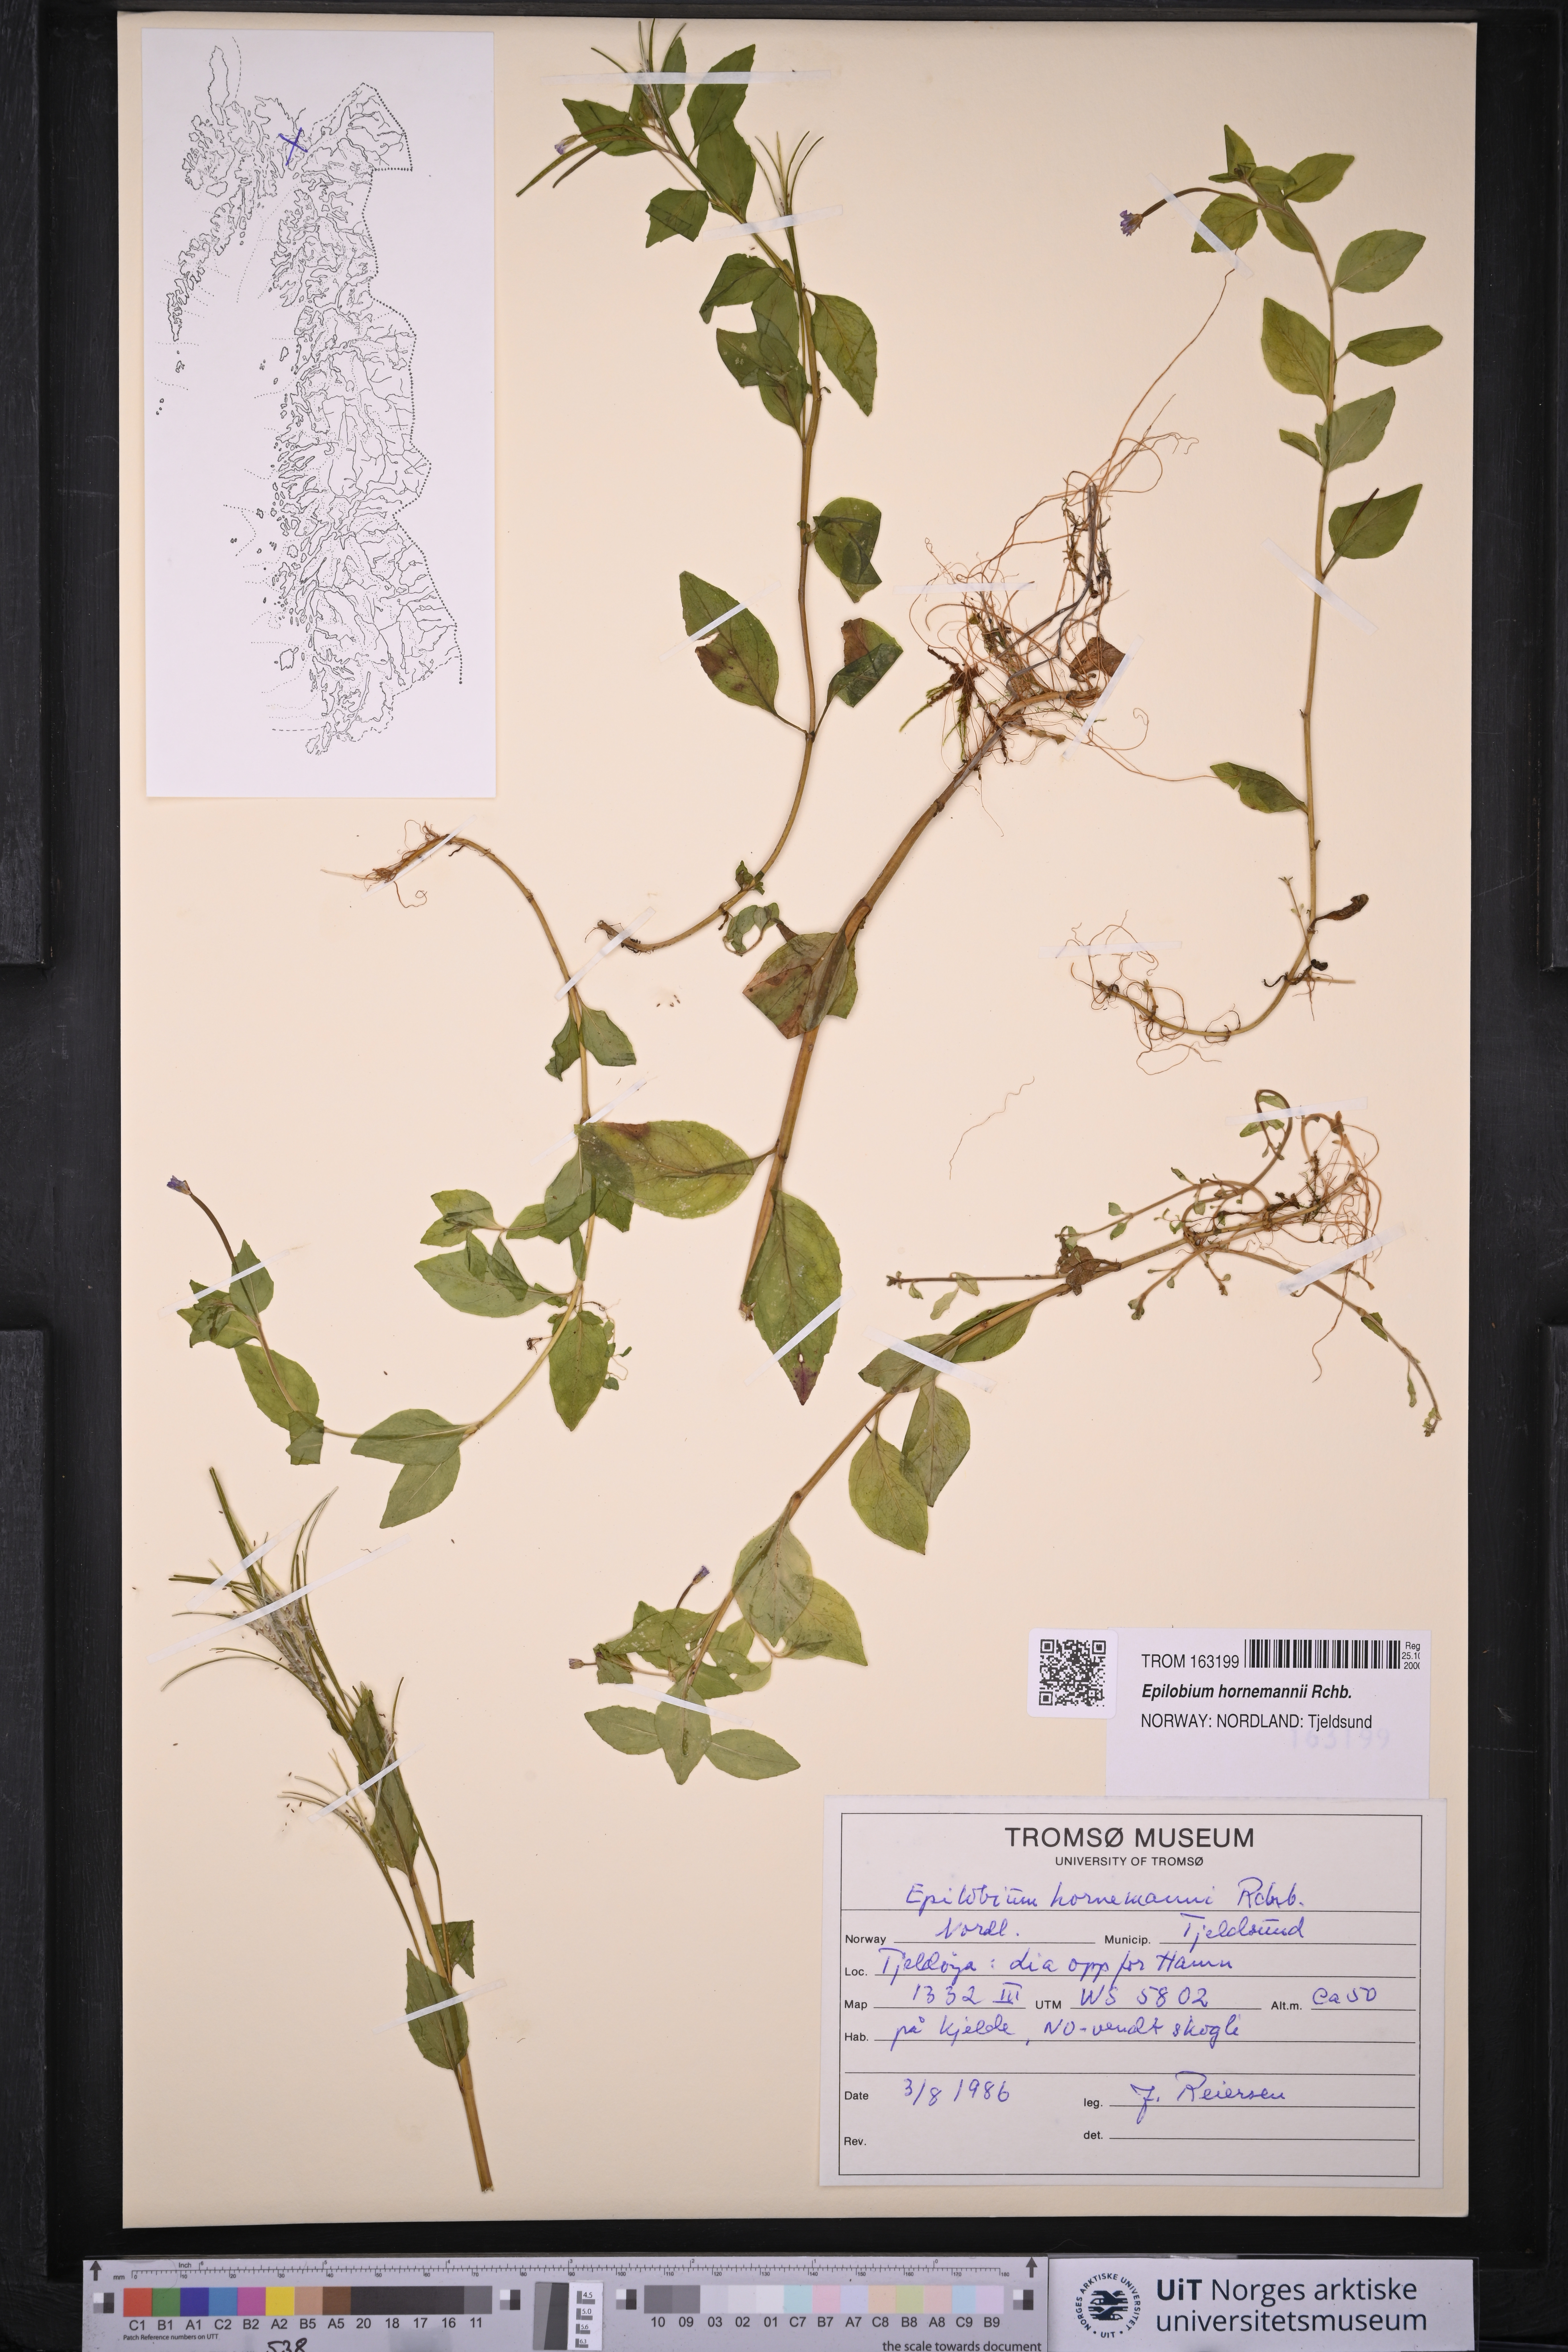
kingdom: Plantae
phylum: Tracheophyta
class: Magnoliopsida
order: Myrtales
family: Onagraceae
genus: Epilobium
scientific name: Epilobium hornemannii
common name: Hornemann's willowherb
